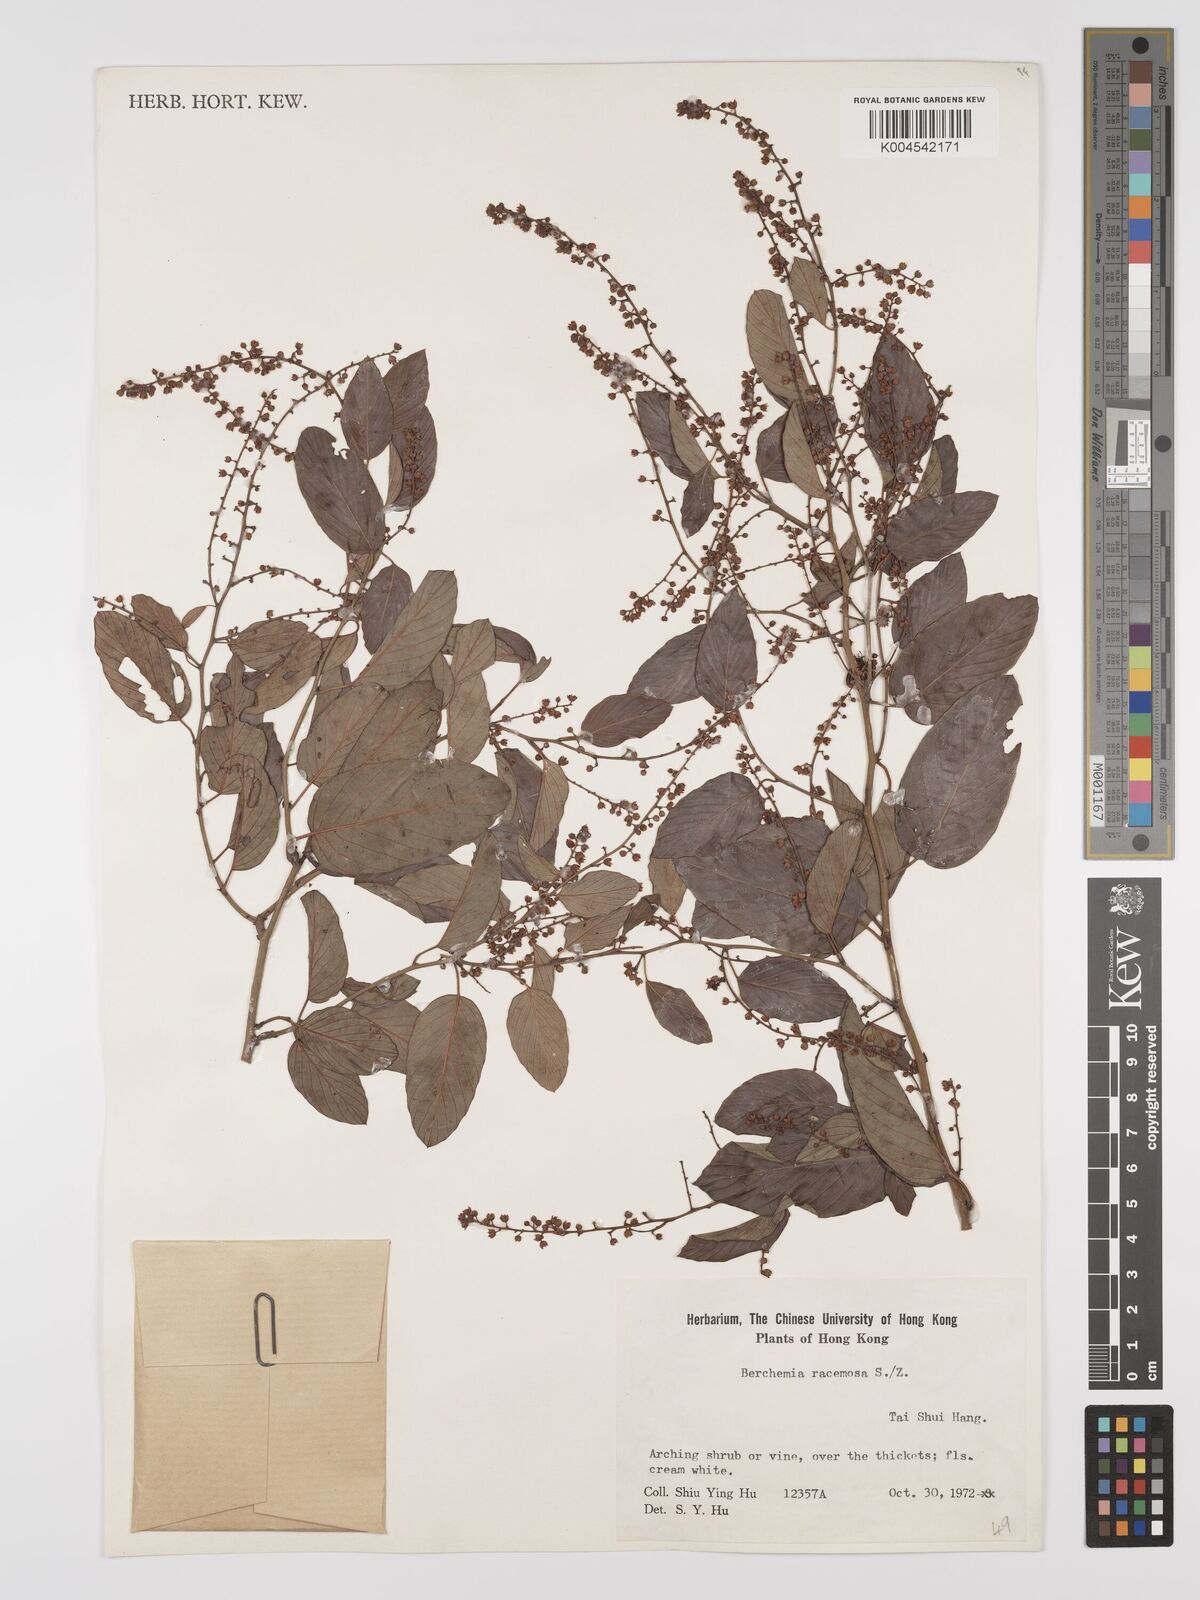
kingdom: Plantae
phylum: Tracheophyta
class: Magnoliopsida
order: Rosales
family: Rhamnaceae
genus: Berchemia
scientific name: Berchemia floribunda
